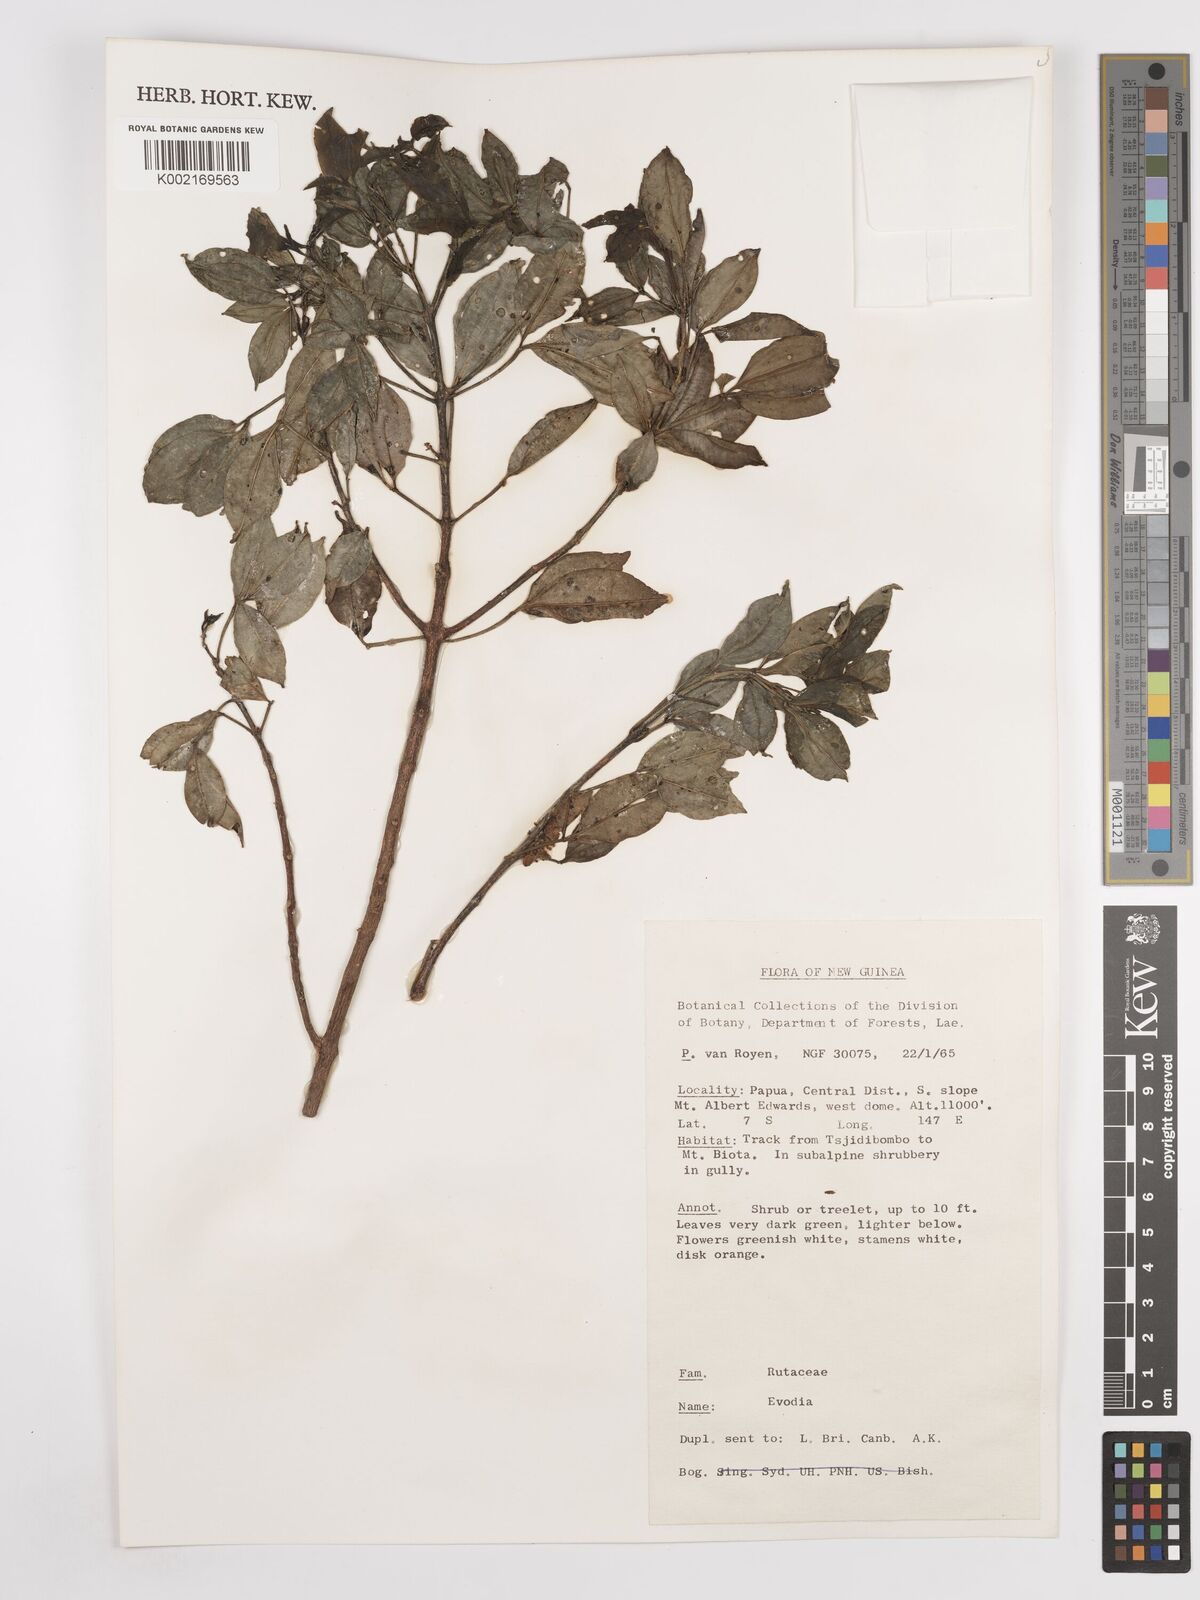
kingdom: Plantae
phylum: Tracheophyta
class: Magnoliopsida
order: Sapindales
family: Rutaceae
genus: Euodia
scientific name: Euodia
